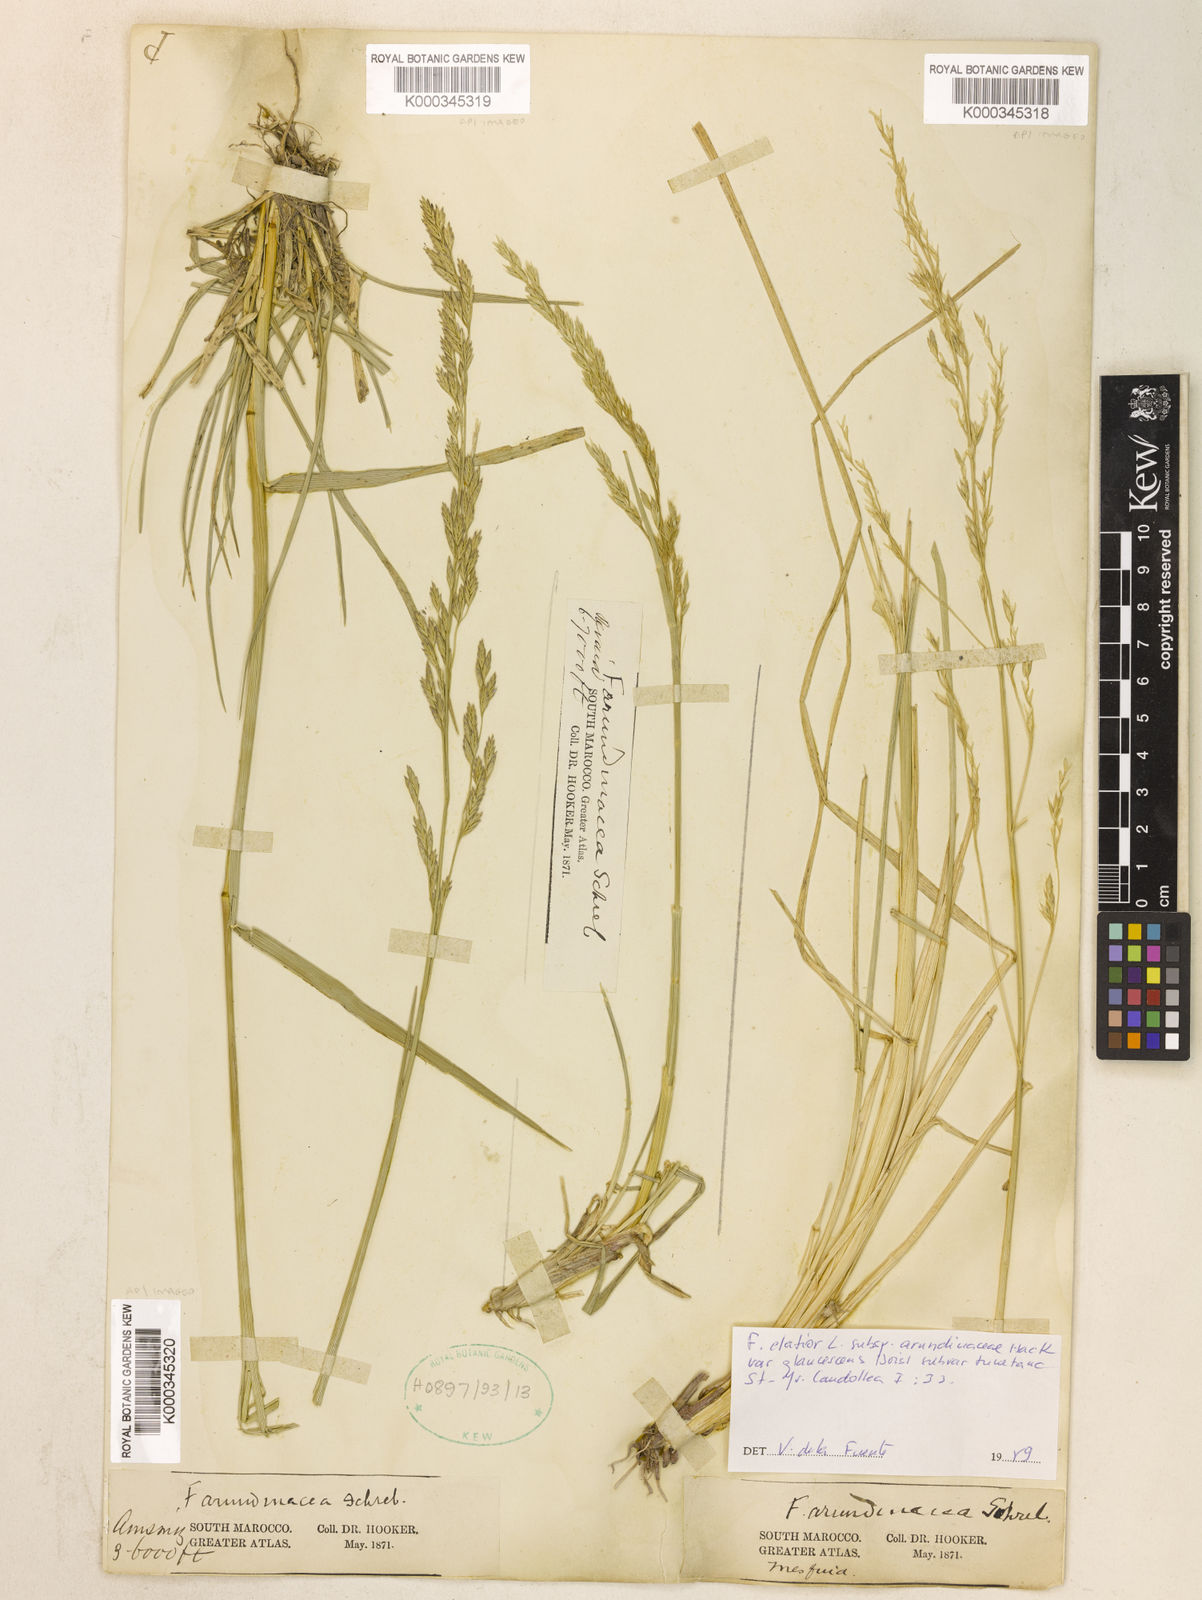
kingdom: Plantae
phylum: Tracheophyta
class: Liliopsida
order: Poales
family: Poaceae
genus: Lolium
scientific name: Lolium mediterraneum
